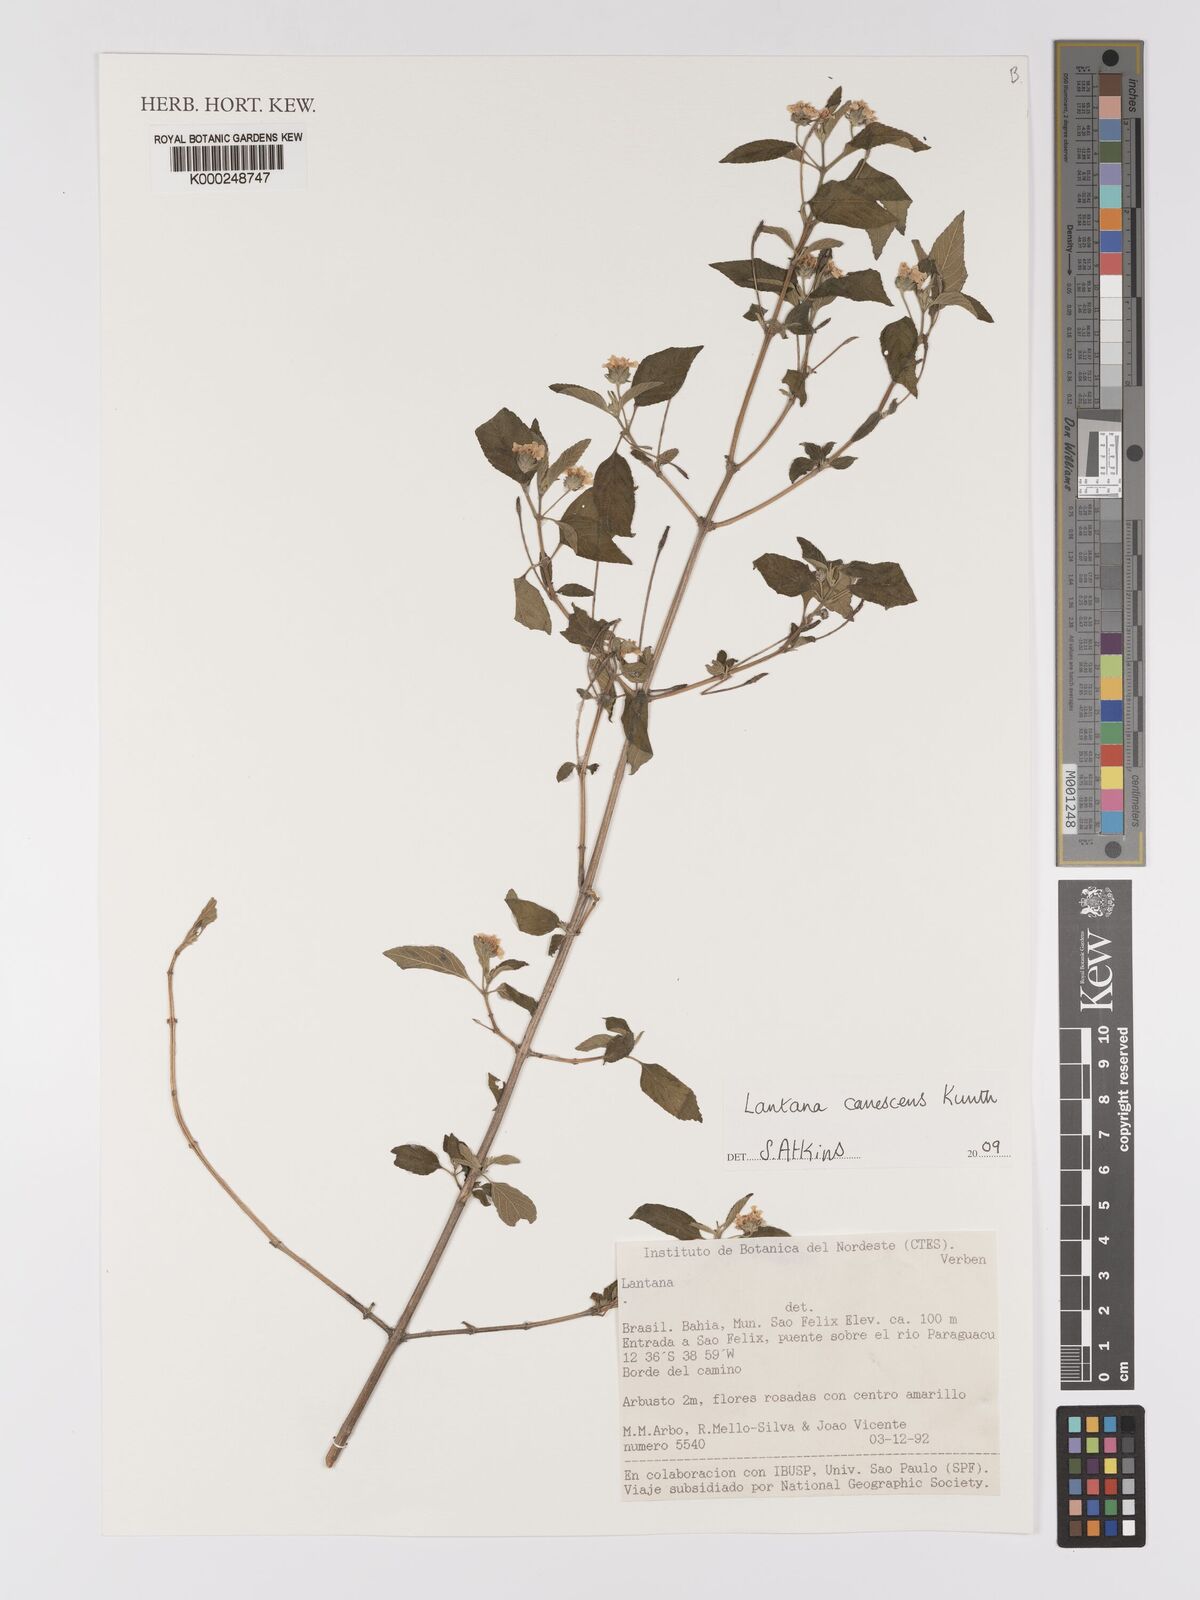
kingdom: Plantae
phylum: Tracheophyta
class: Magnoliopsida
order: Lamiales
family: Verbenaceae
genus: Lantana
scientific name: Lantana canescens
